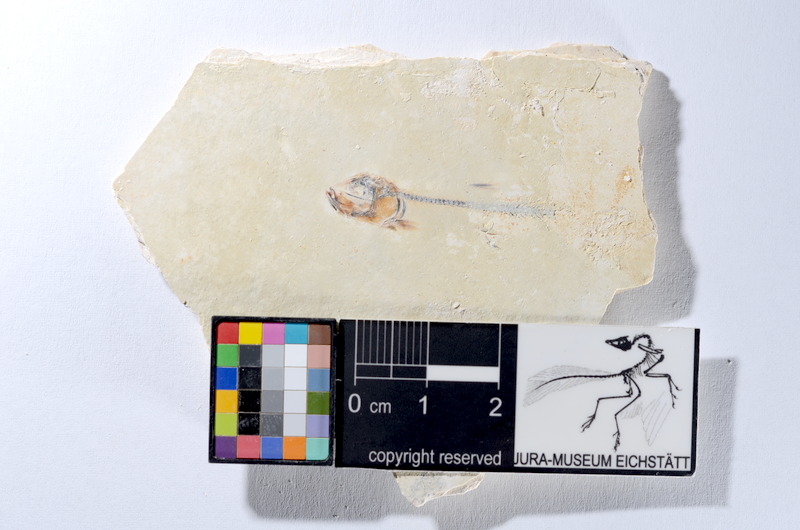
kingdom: Animalia
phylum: Chordata
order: Salmoniformes
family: Orthogonikleithridae
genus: Orthogonikleithrus
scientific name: Orthogonikleithrus hoelli
